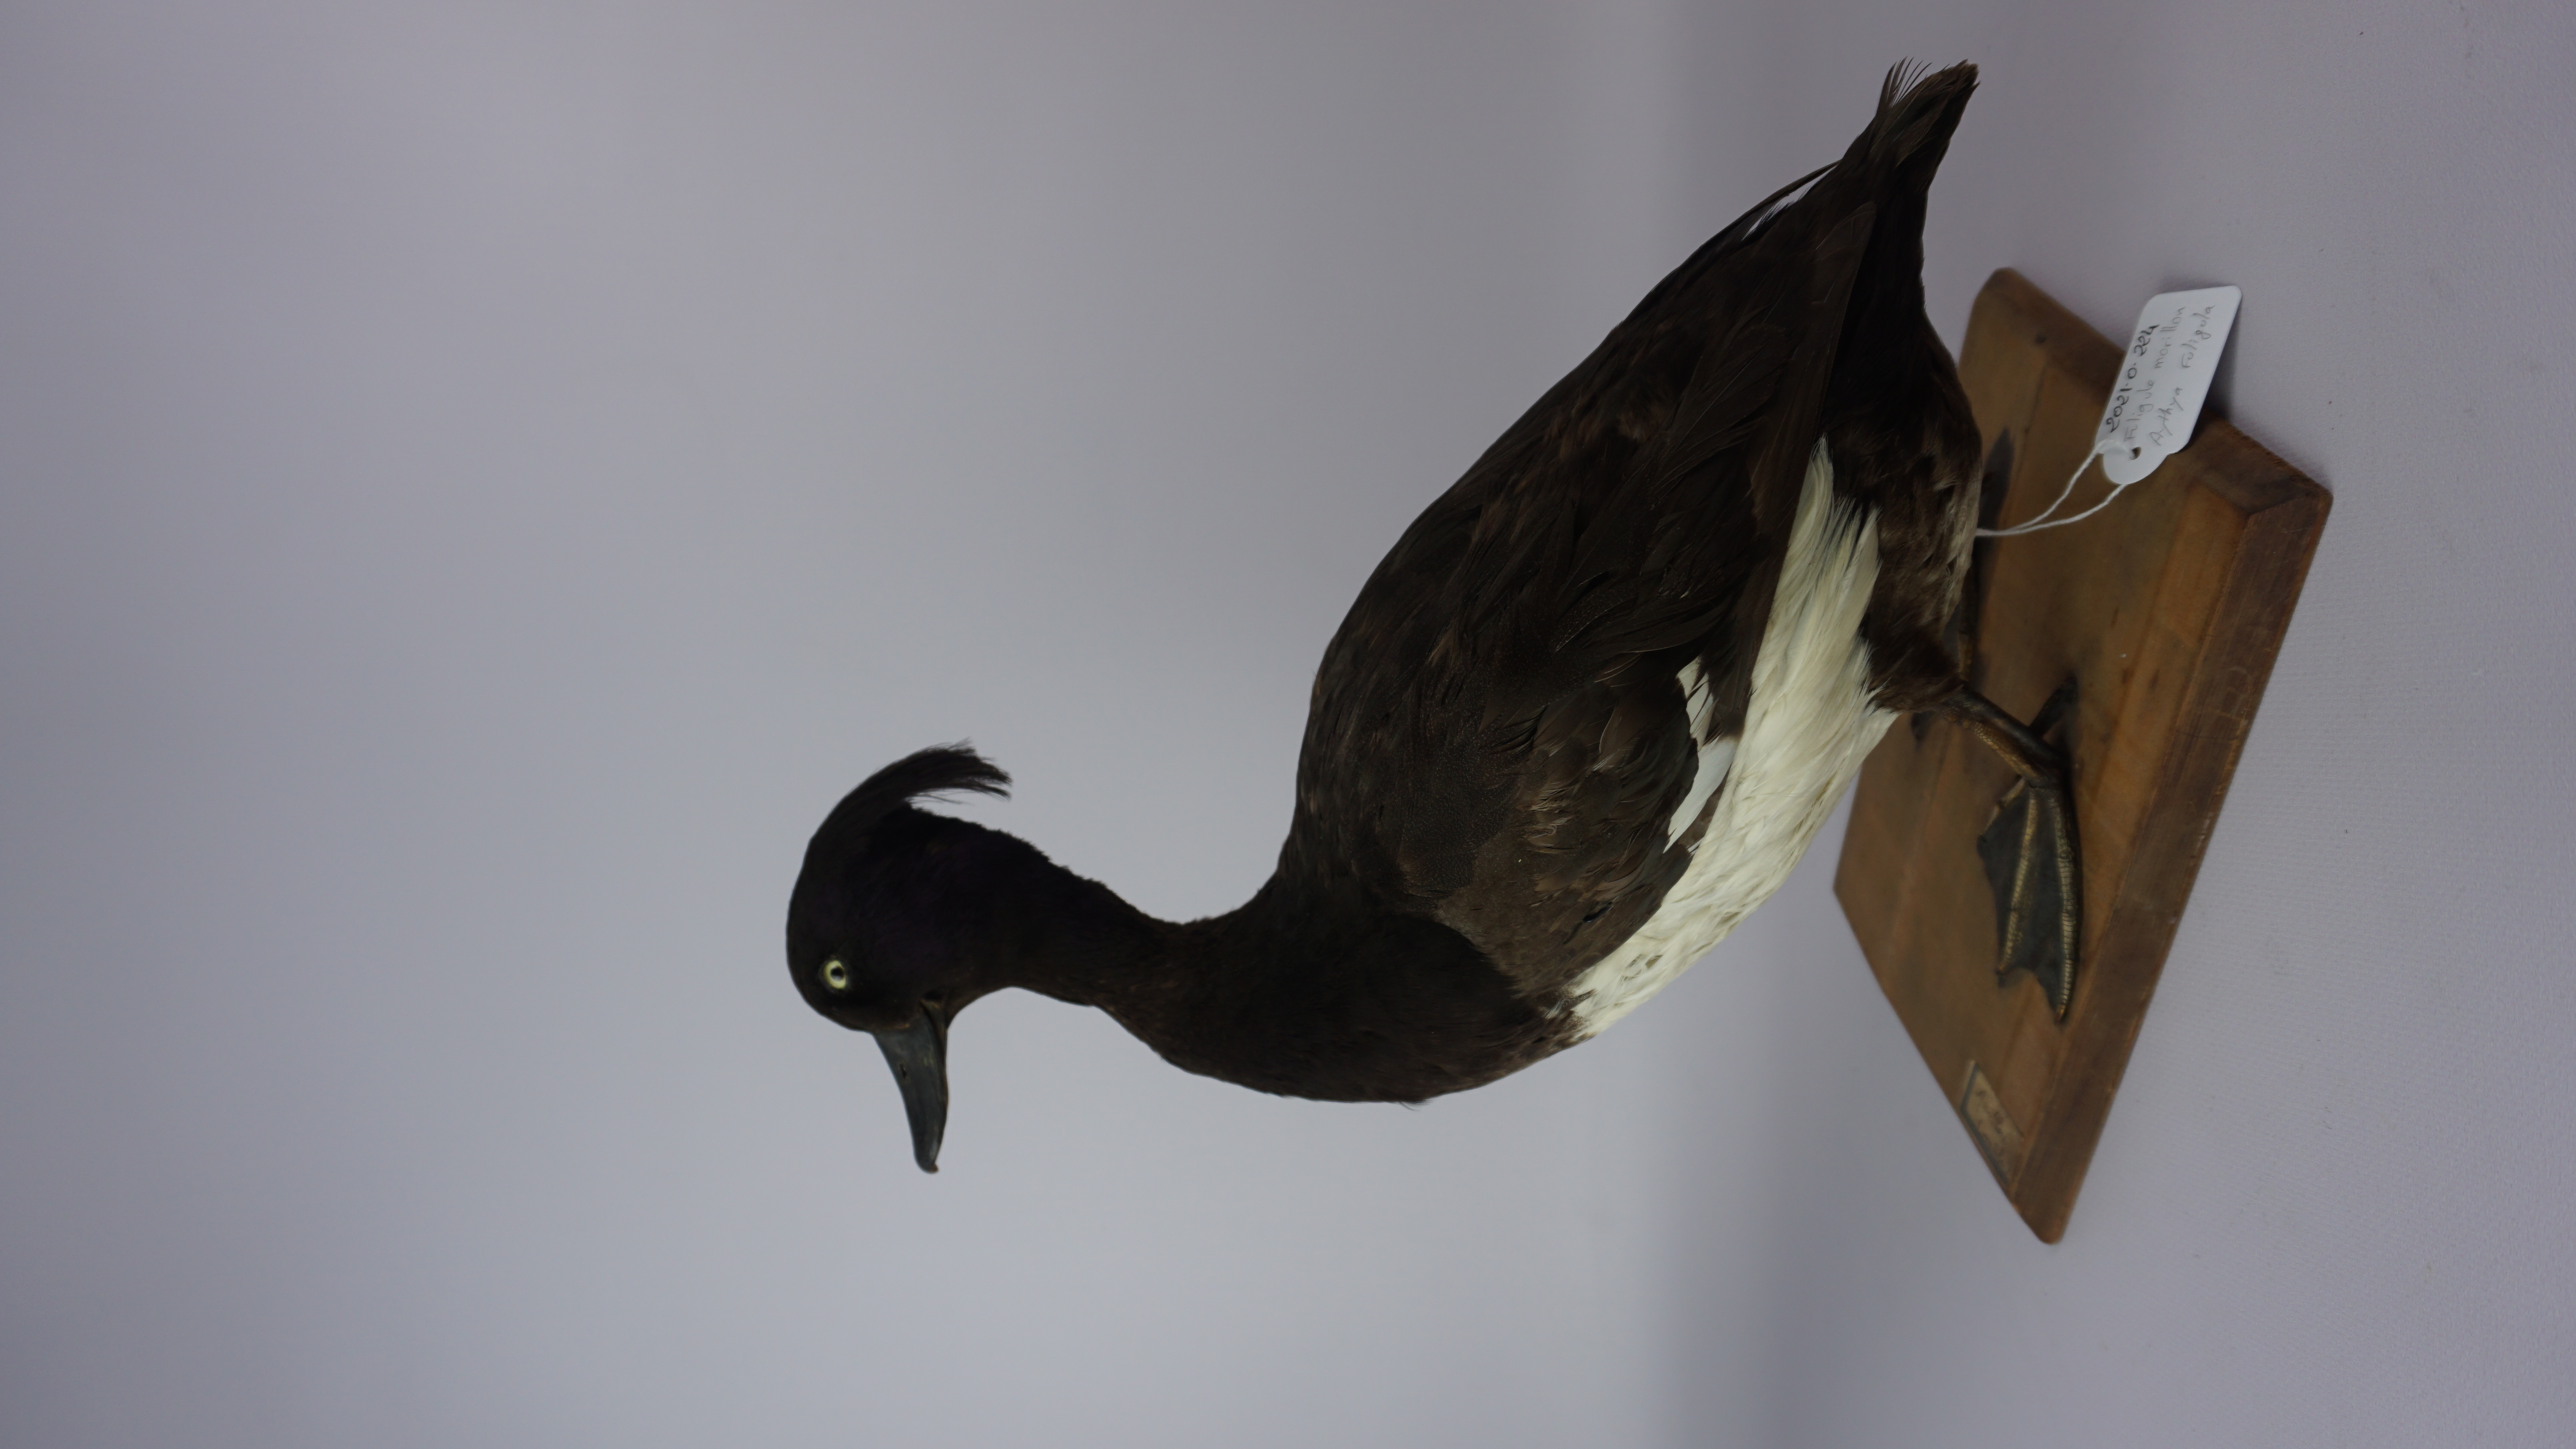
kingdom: Animalia
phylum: Chordata
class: Aves
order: Anseriformes
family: Anatidae
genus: Aythya
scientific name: Aythya fuligula
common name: Tufted duck
